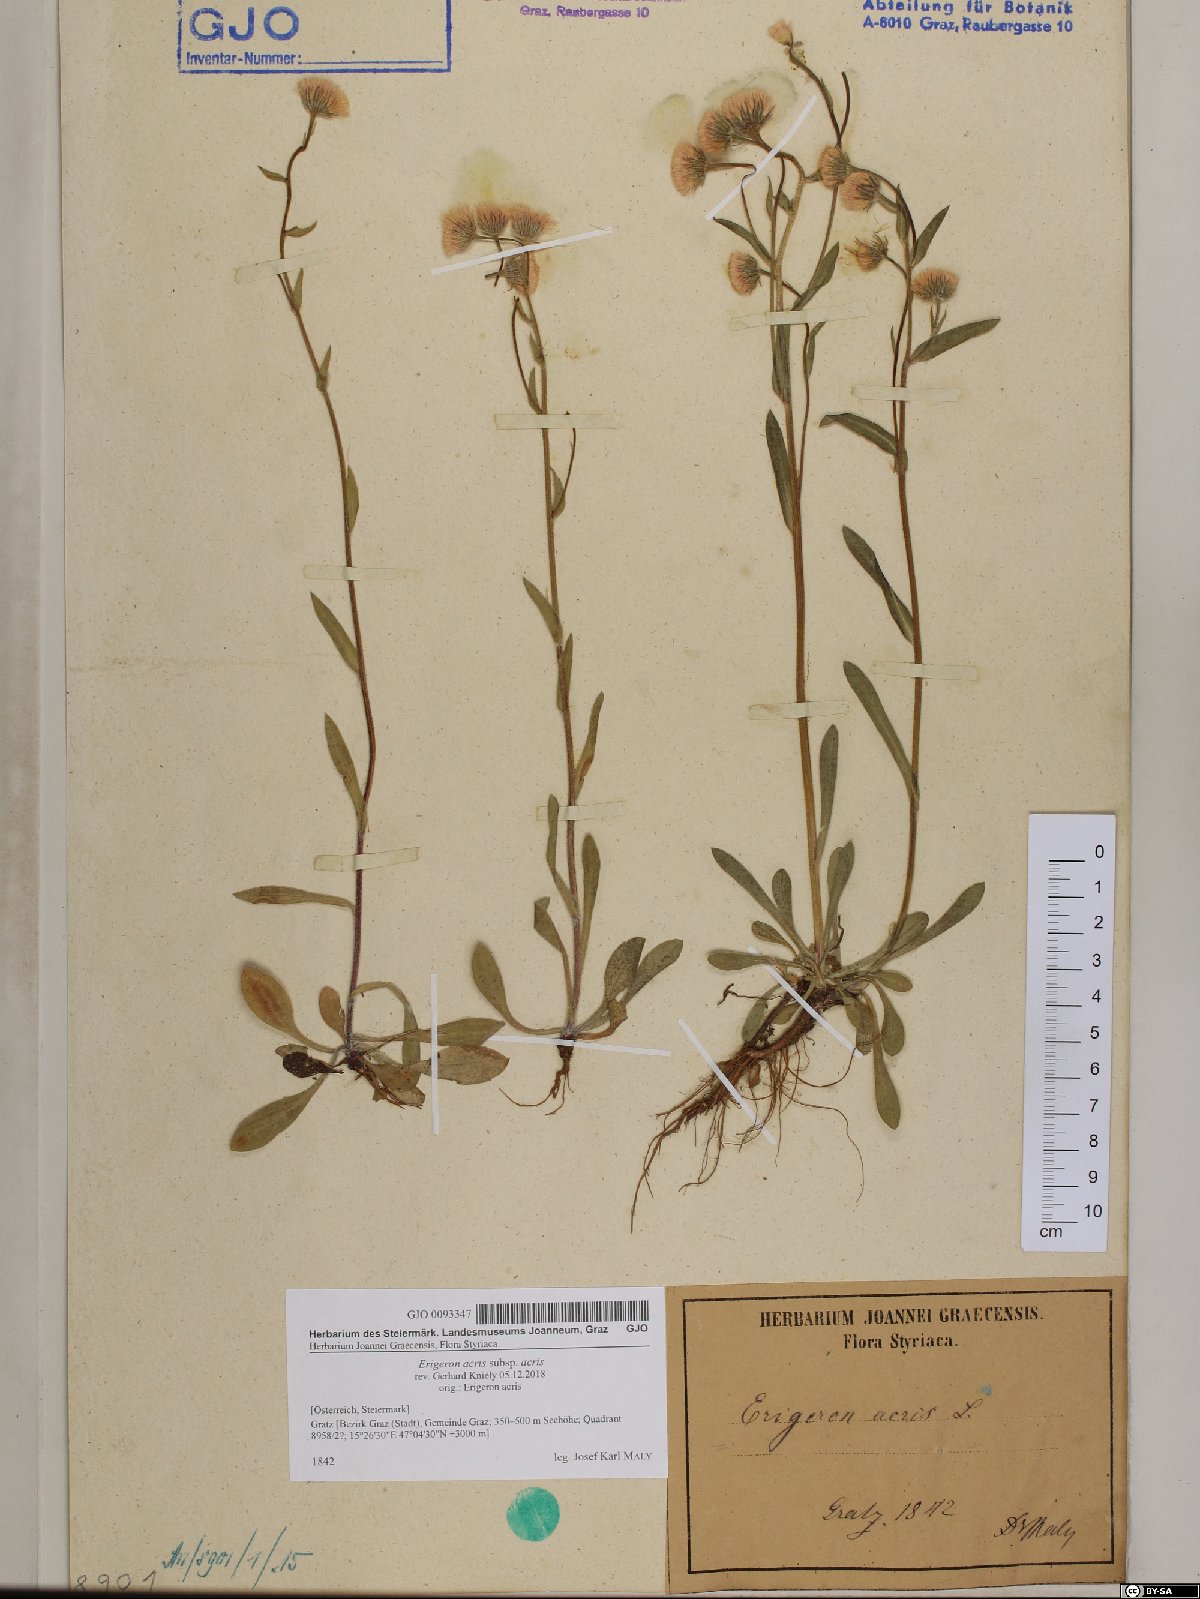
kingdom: Plantae
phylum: Tracheophyta
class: Magnoliopsida
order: Asterales
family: Asteraceae
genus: Erigeron
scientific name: Erigeron acris
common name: Blue fleabane
